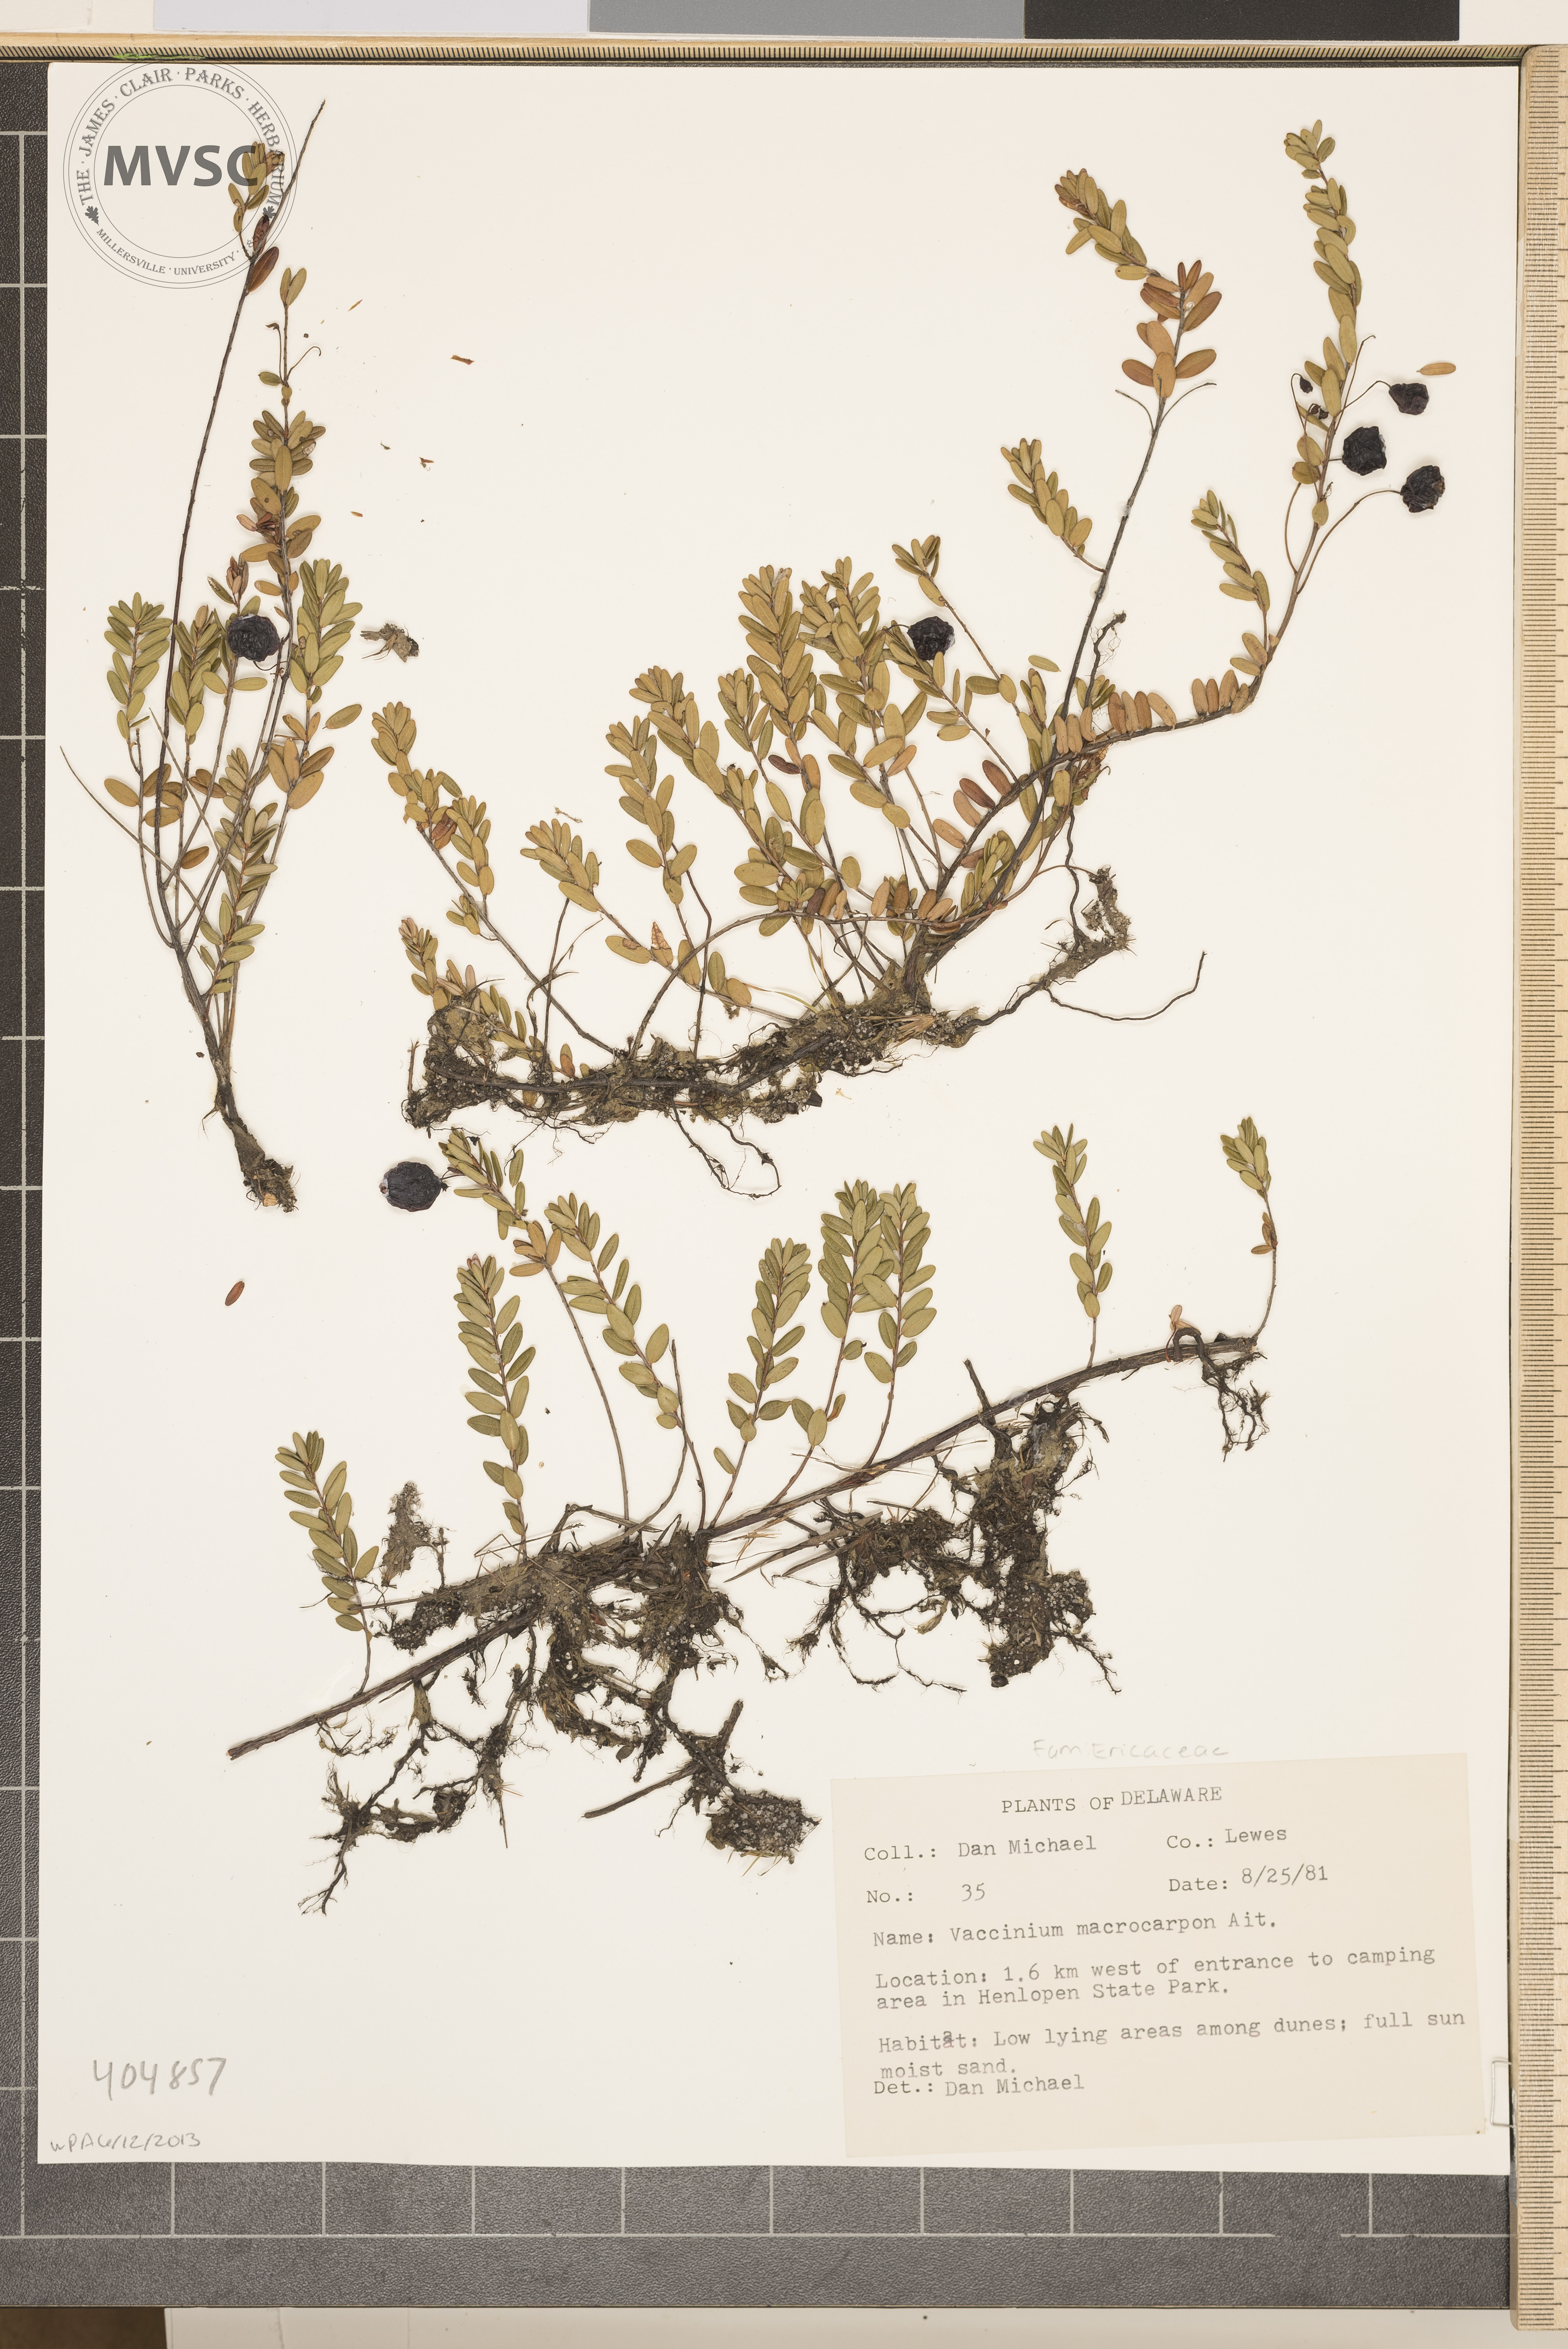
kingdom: Plantae
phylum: Tracheophyta
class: Magnoliopsida
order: Ericales
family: Ericaceae
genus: Vaccinium
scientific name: Vaccinium macrocarpon
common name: American cranberry
